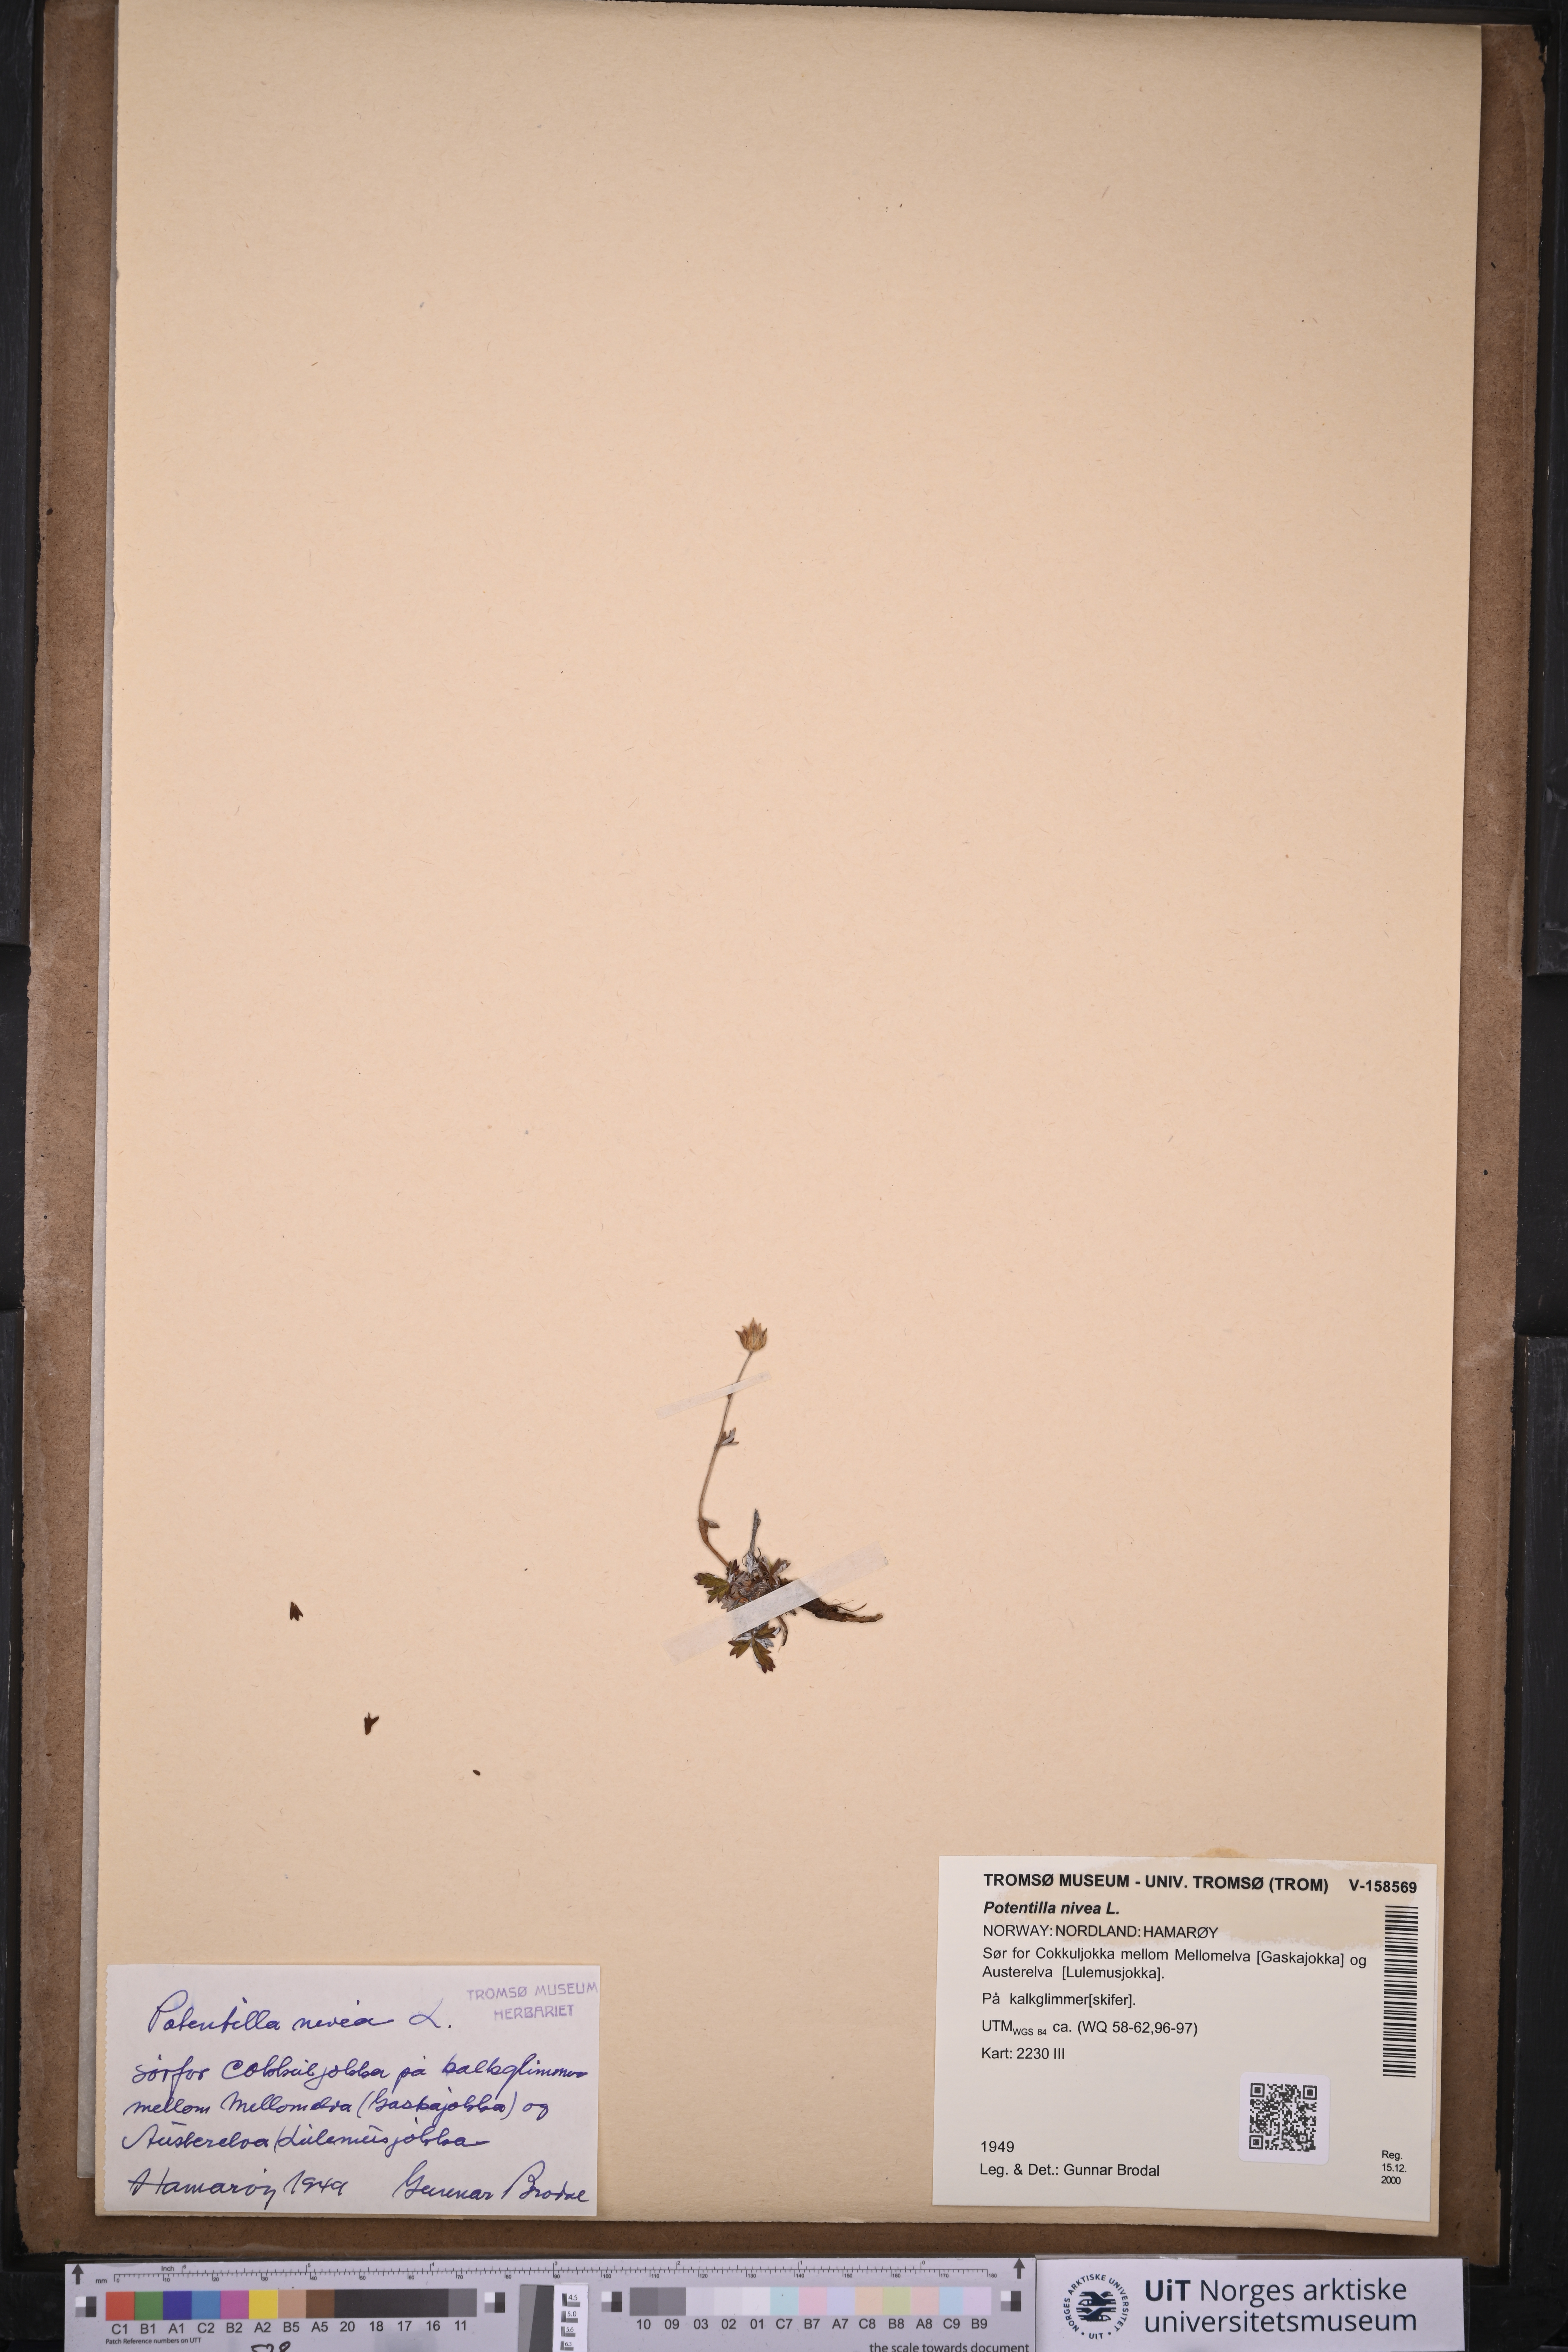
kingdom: Plantae
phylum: Tracheophyta
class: Magnoliopsida
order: Rosales
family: Rosaceae
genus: Potentilla
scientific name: Potentilla arenosa
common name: Bluff cinquefoil
